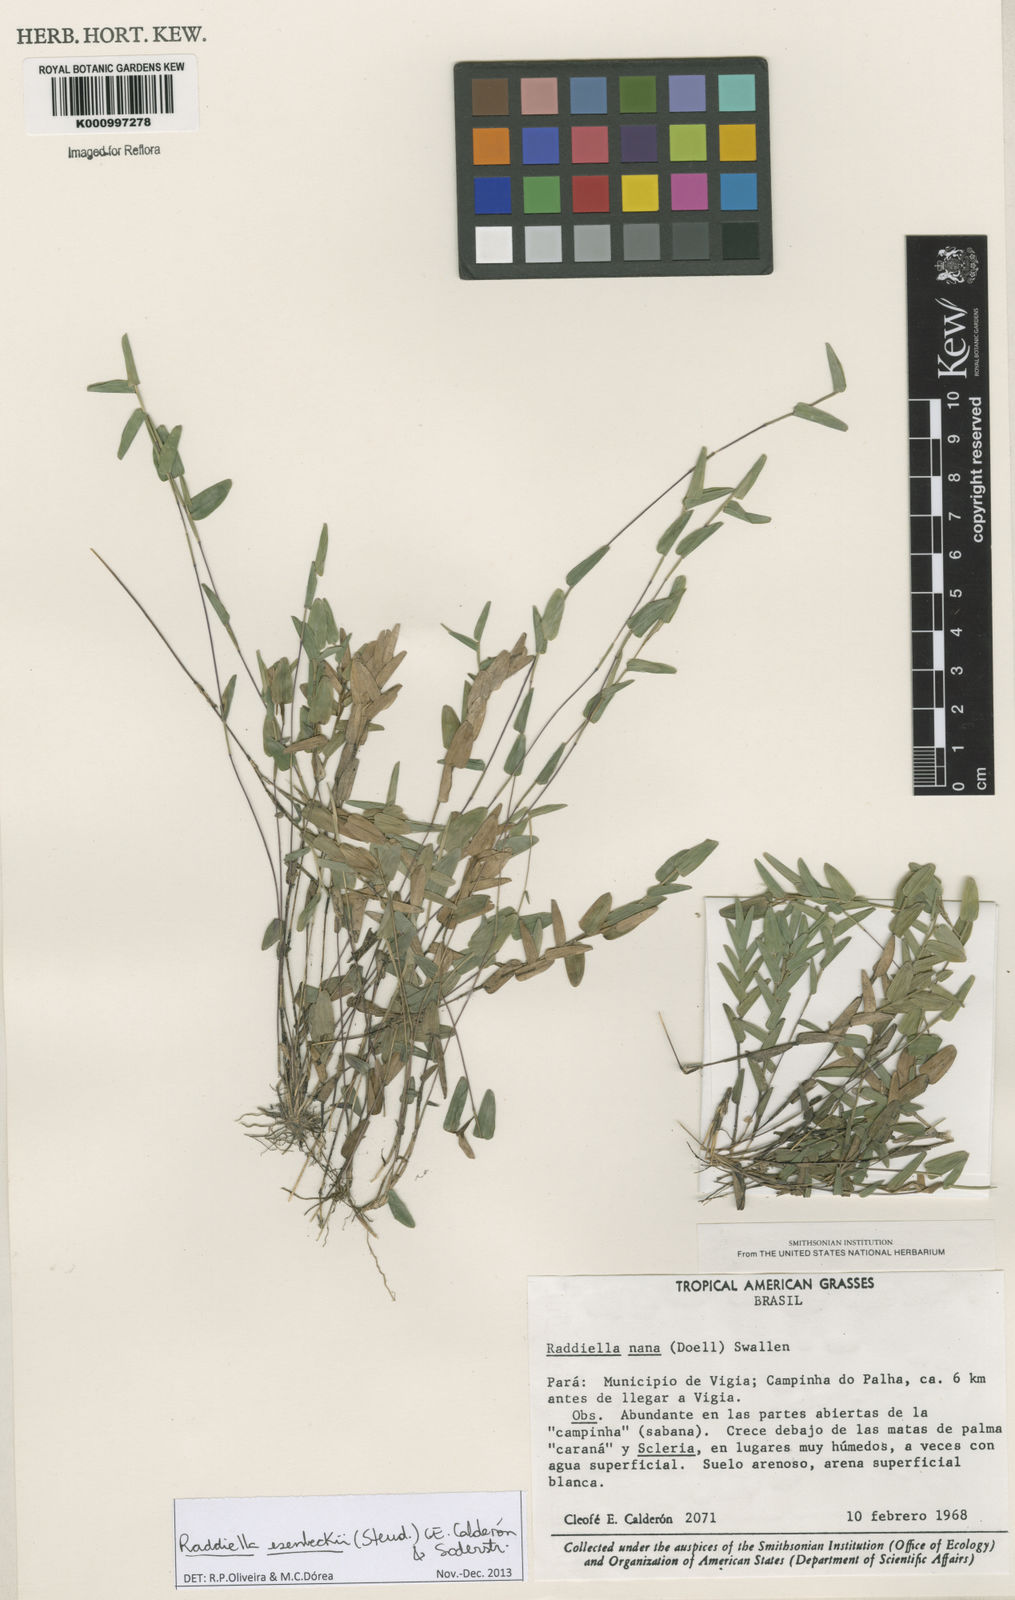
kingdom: Plantae
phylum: Tracheophyta
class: Liliopsida
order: Poales
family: Poaceae
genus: Raddiella
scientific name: Raddiella
